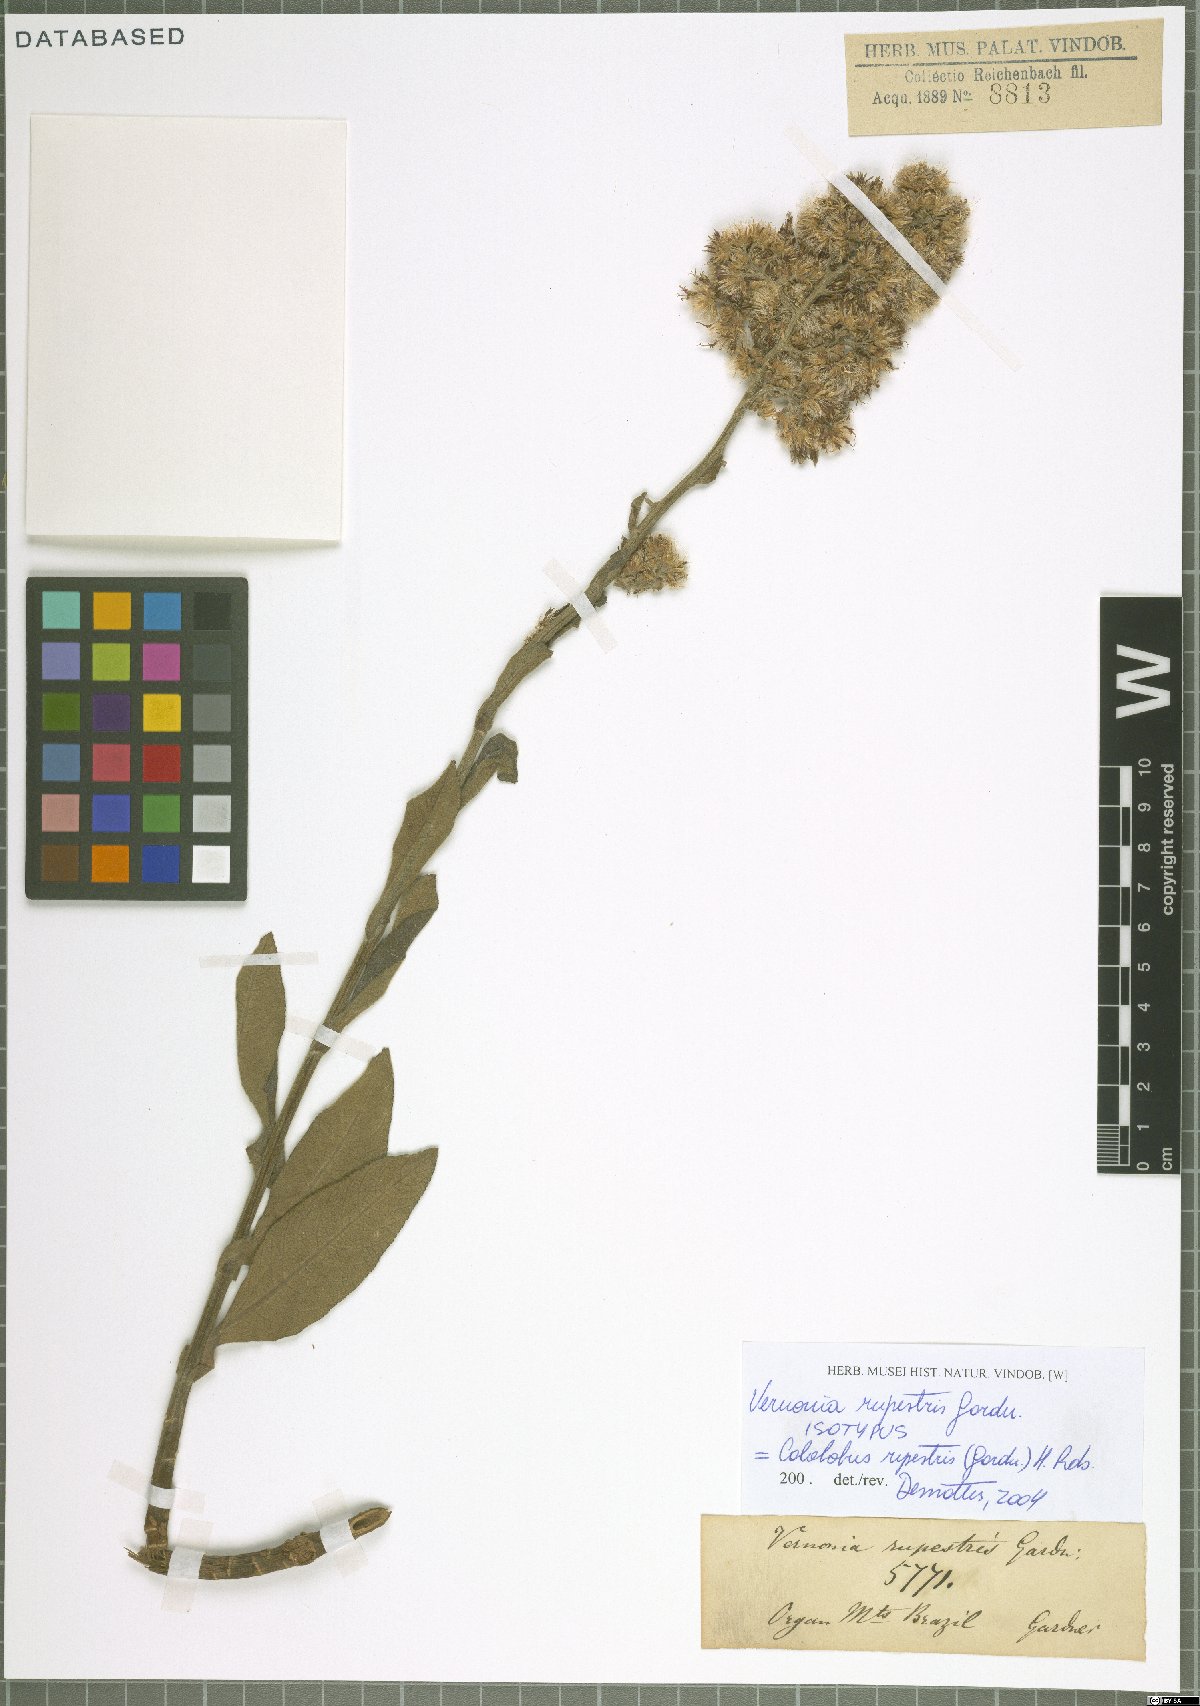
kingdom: Plantae
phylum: Tracheophyta
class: Magnoliopsida
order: Asterales
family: Asteraceae
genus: Cololobus
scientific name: Cololobus rupestris
